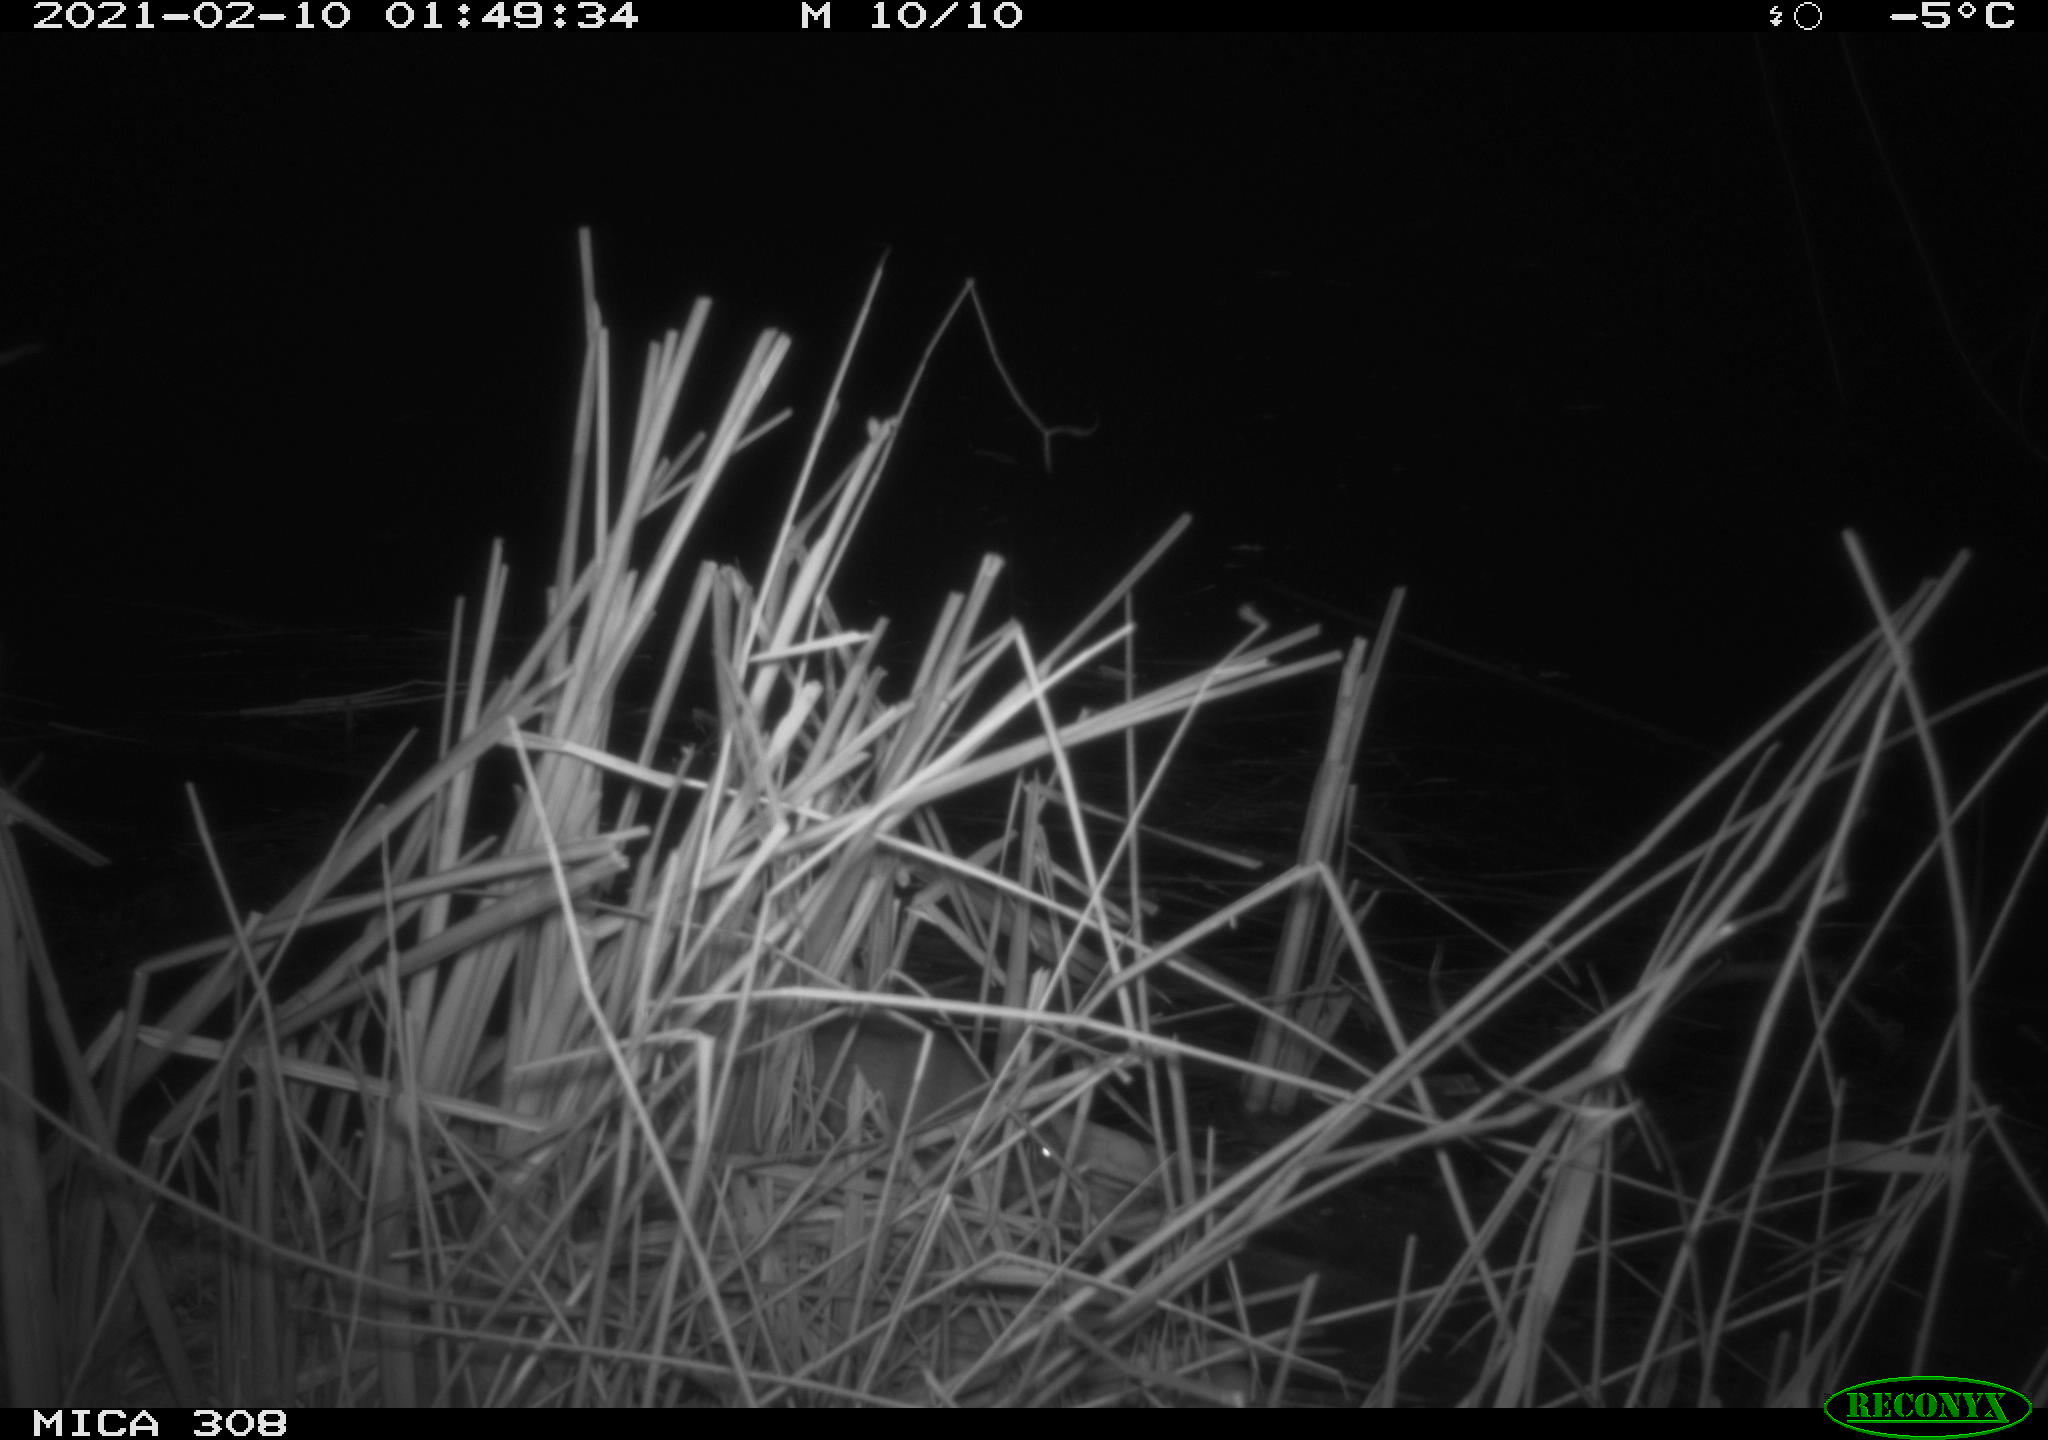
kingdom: Animalia
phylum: Chordata
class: Mammalia
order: Rodentia
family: Muridae
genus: Rattus
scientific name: Rattus norvegicus
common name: Brown rat
